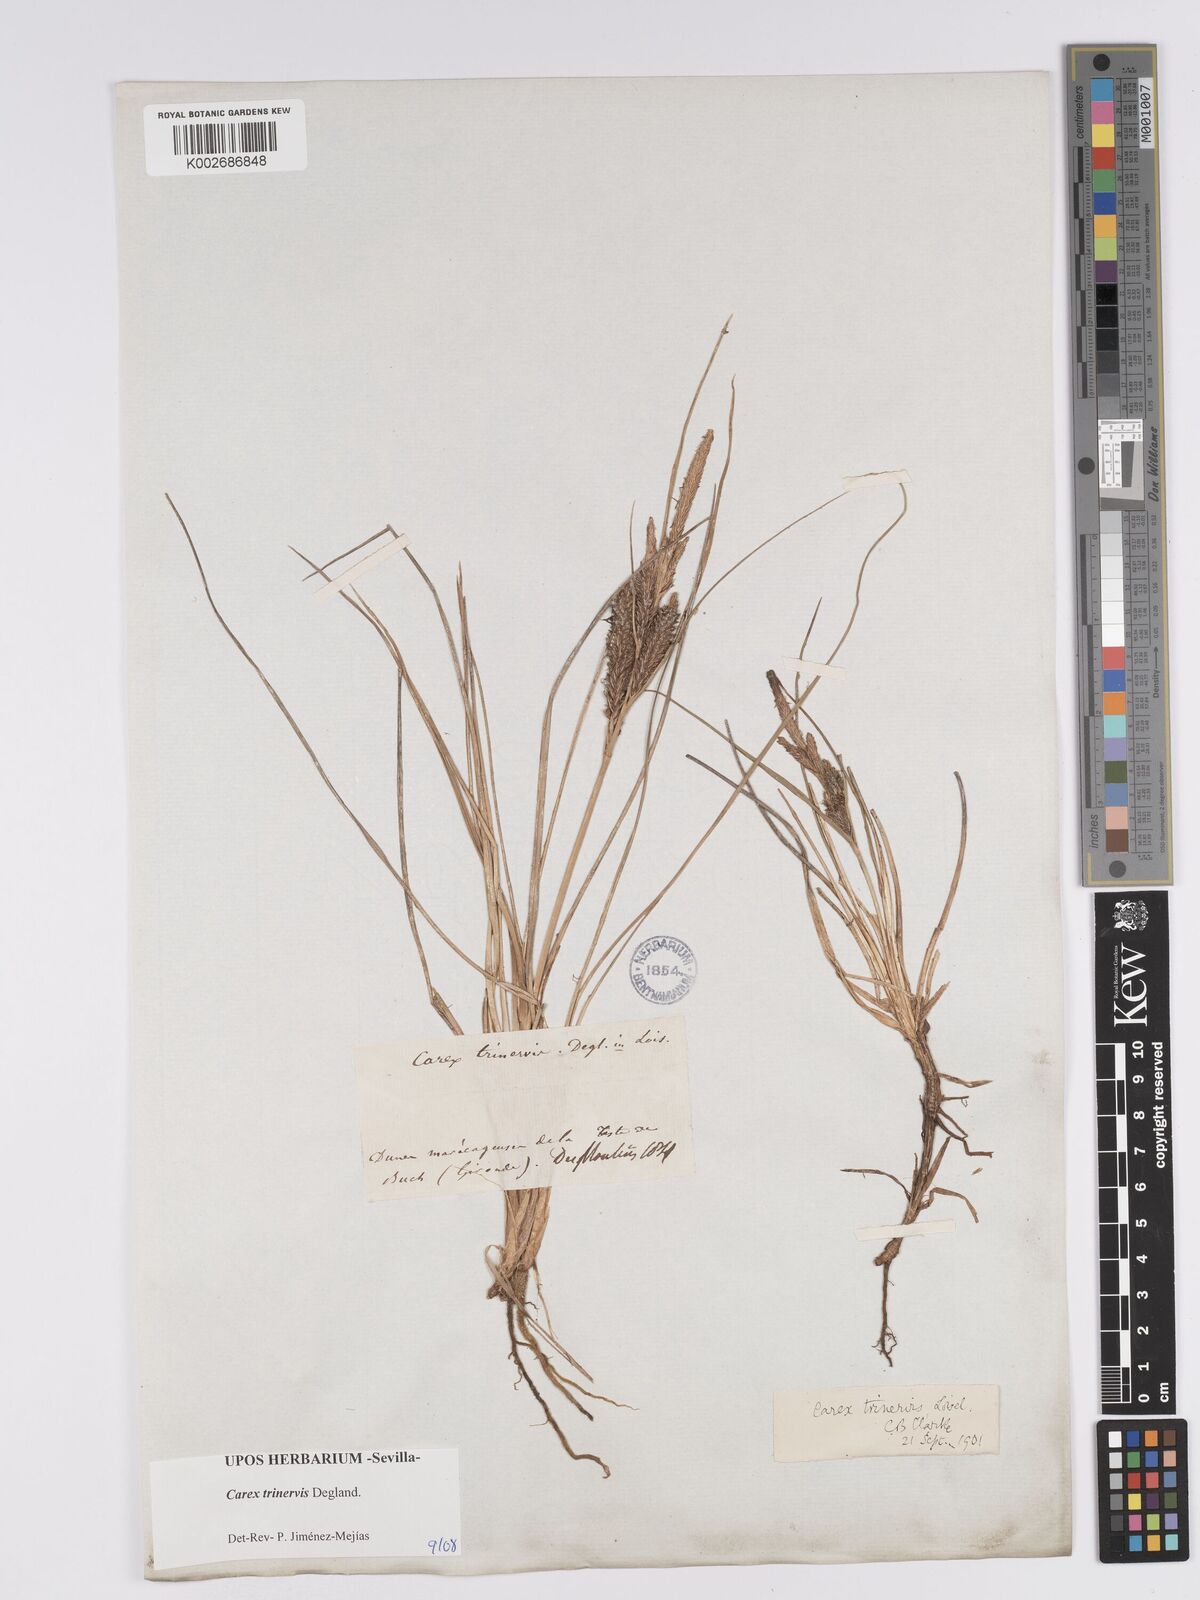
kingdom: Plantae
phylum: Tracheophyta
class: Liliopsida
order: Poales
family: Cyperaceae
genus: Carex
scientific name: Carex trinervis
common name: Three-nerved sedge
